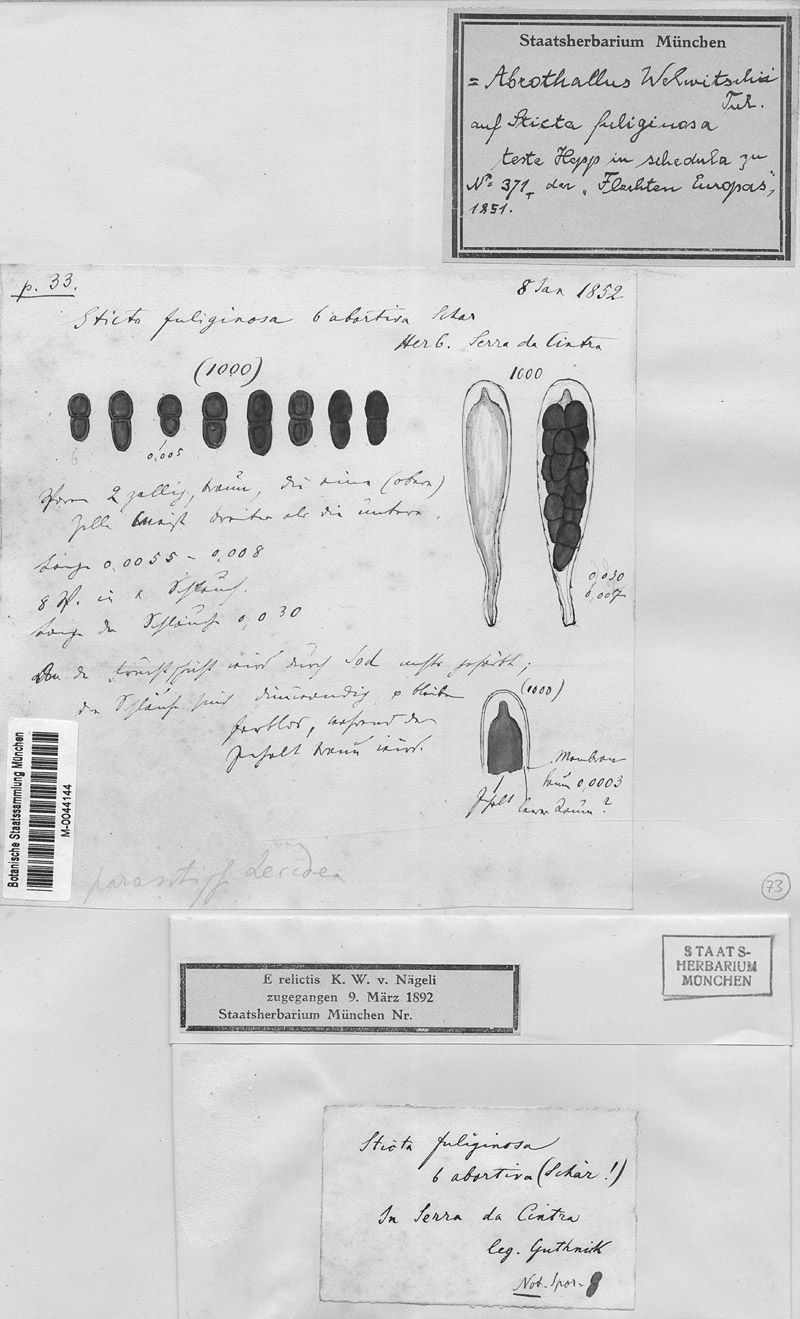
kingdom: Fungi
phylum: Ascomycota
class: Dothideomycetes
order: Abrothallales
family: Abrothallaceae
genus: Abrothallus
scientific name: Abrothallus welwitschii
